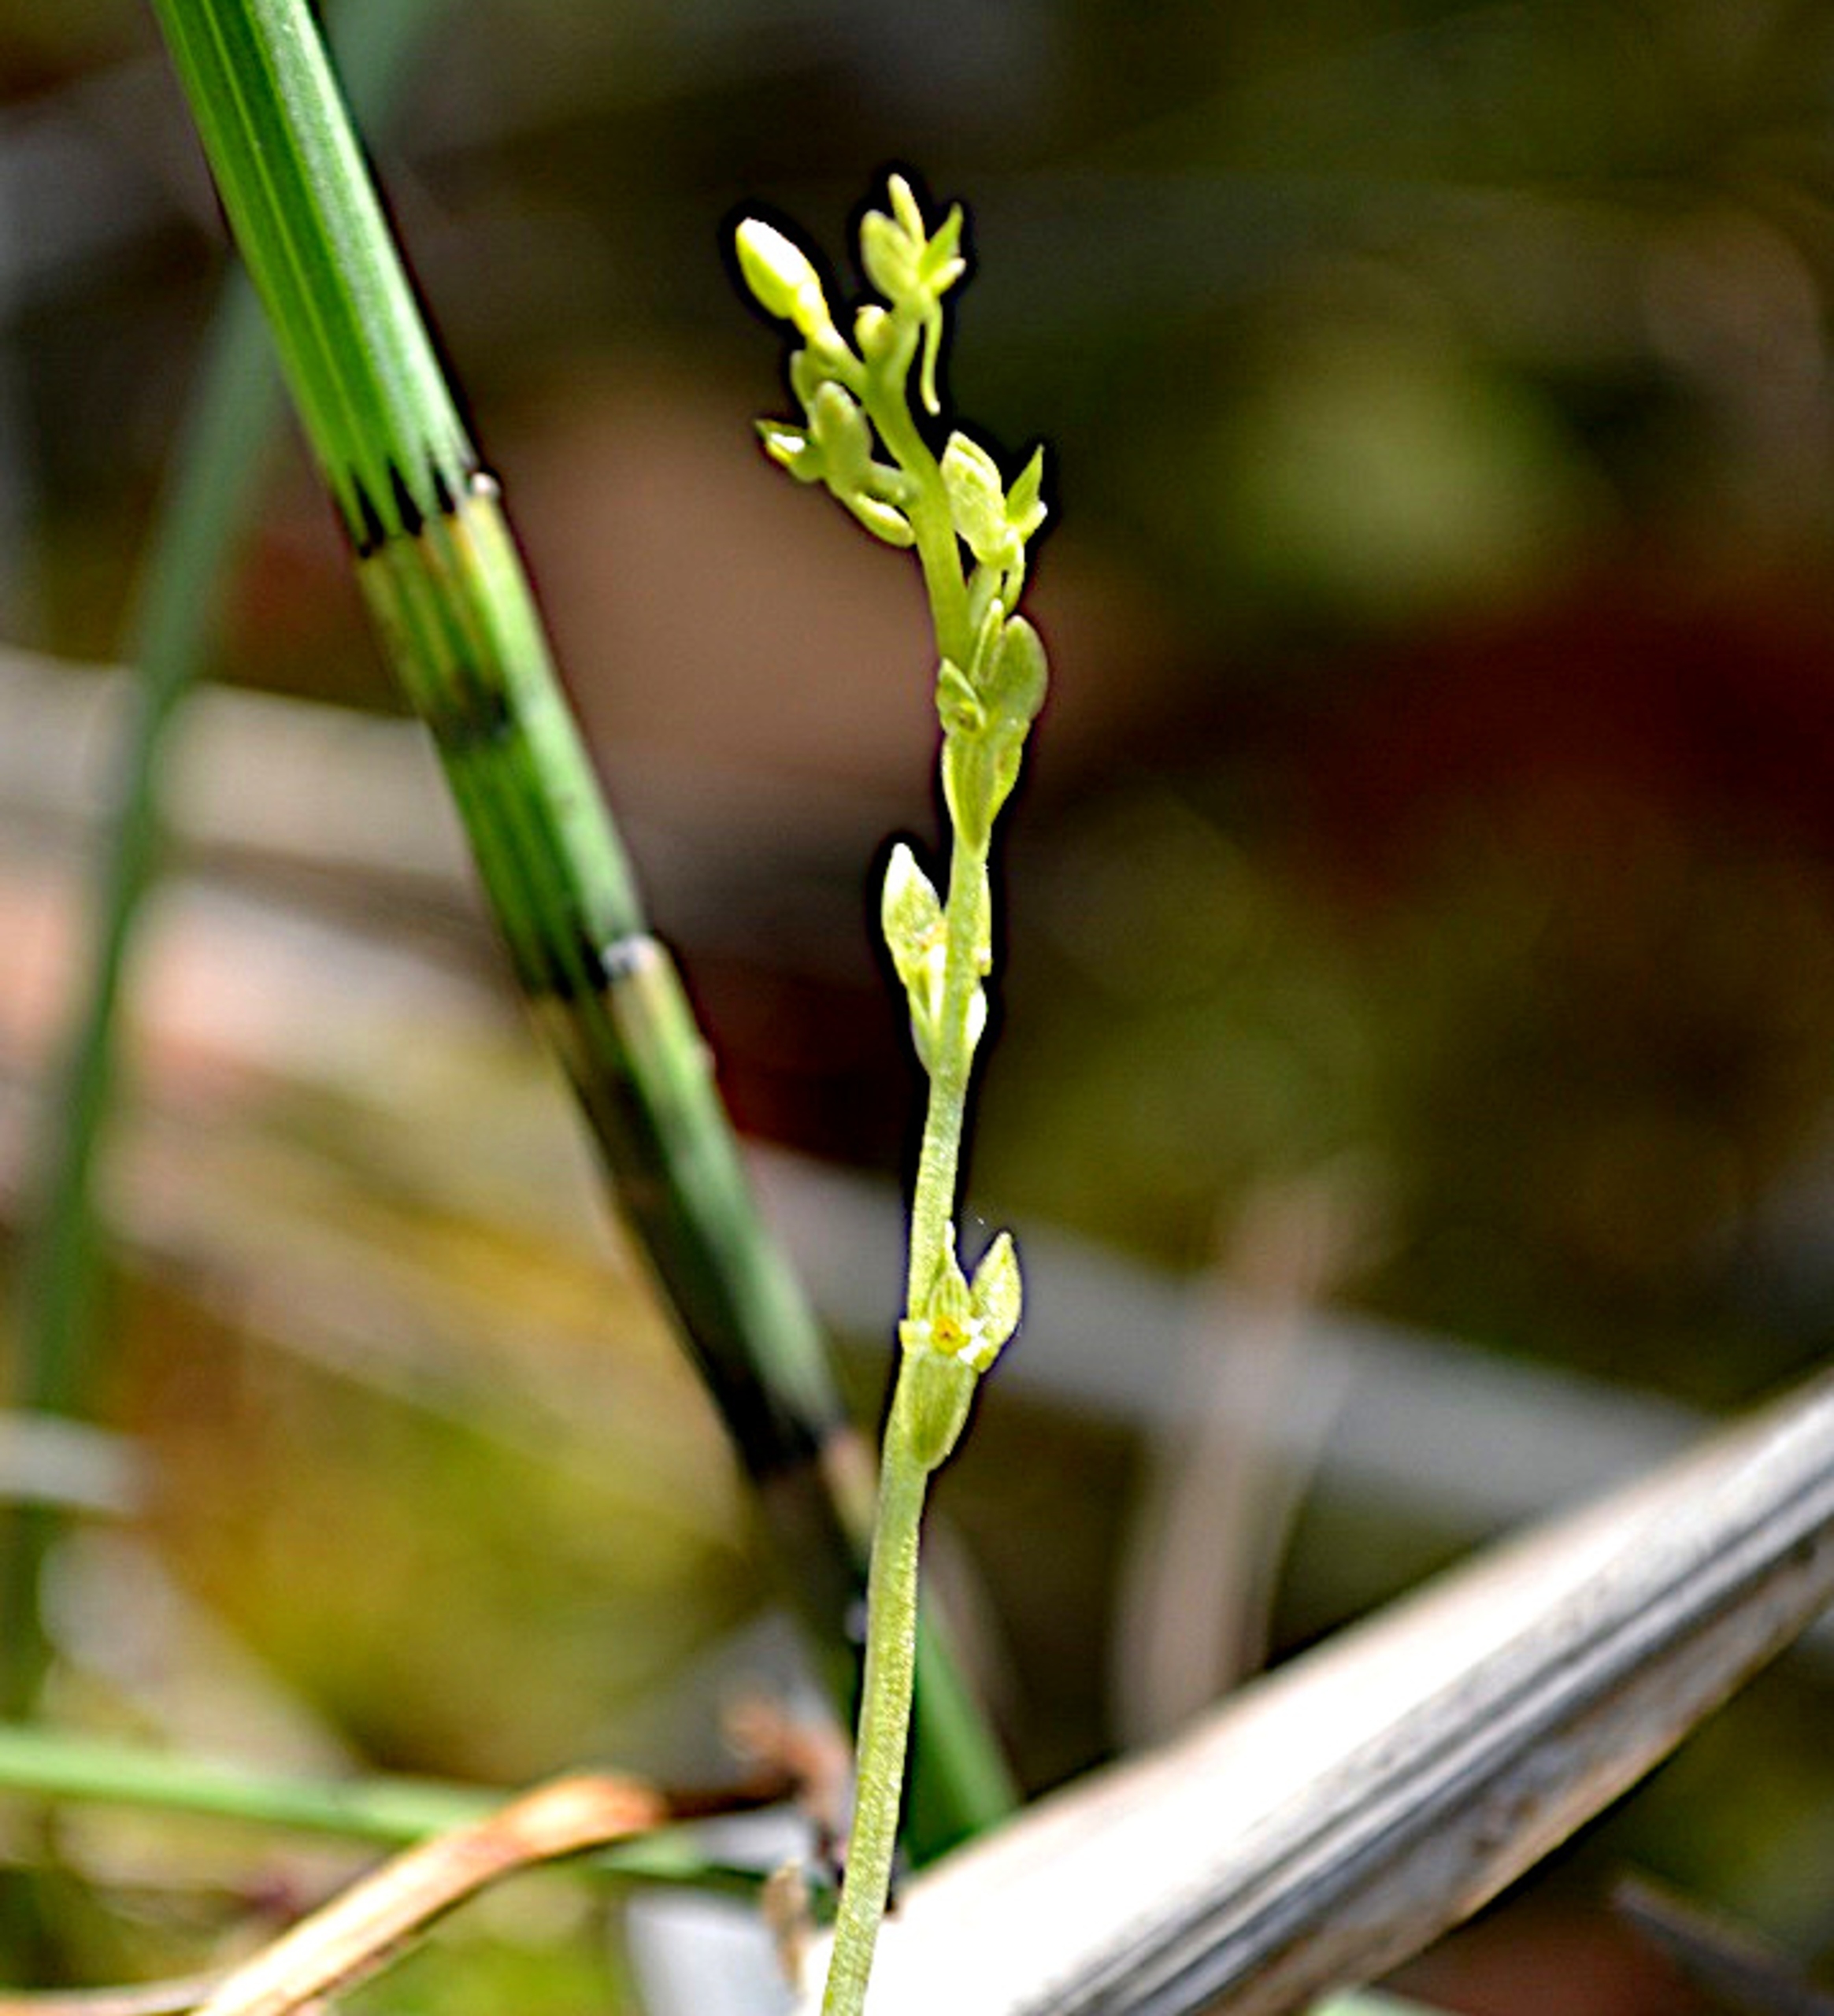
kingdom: Plantae
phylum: Tracheophyta
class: Liliopsida
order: Asparagales
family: Orchidaceae
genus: Hammarbya
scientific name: Hammarbya paludosa
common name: Hjertelæbe
